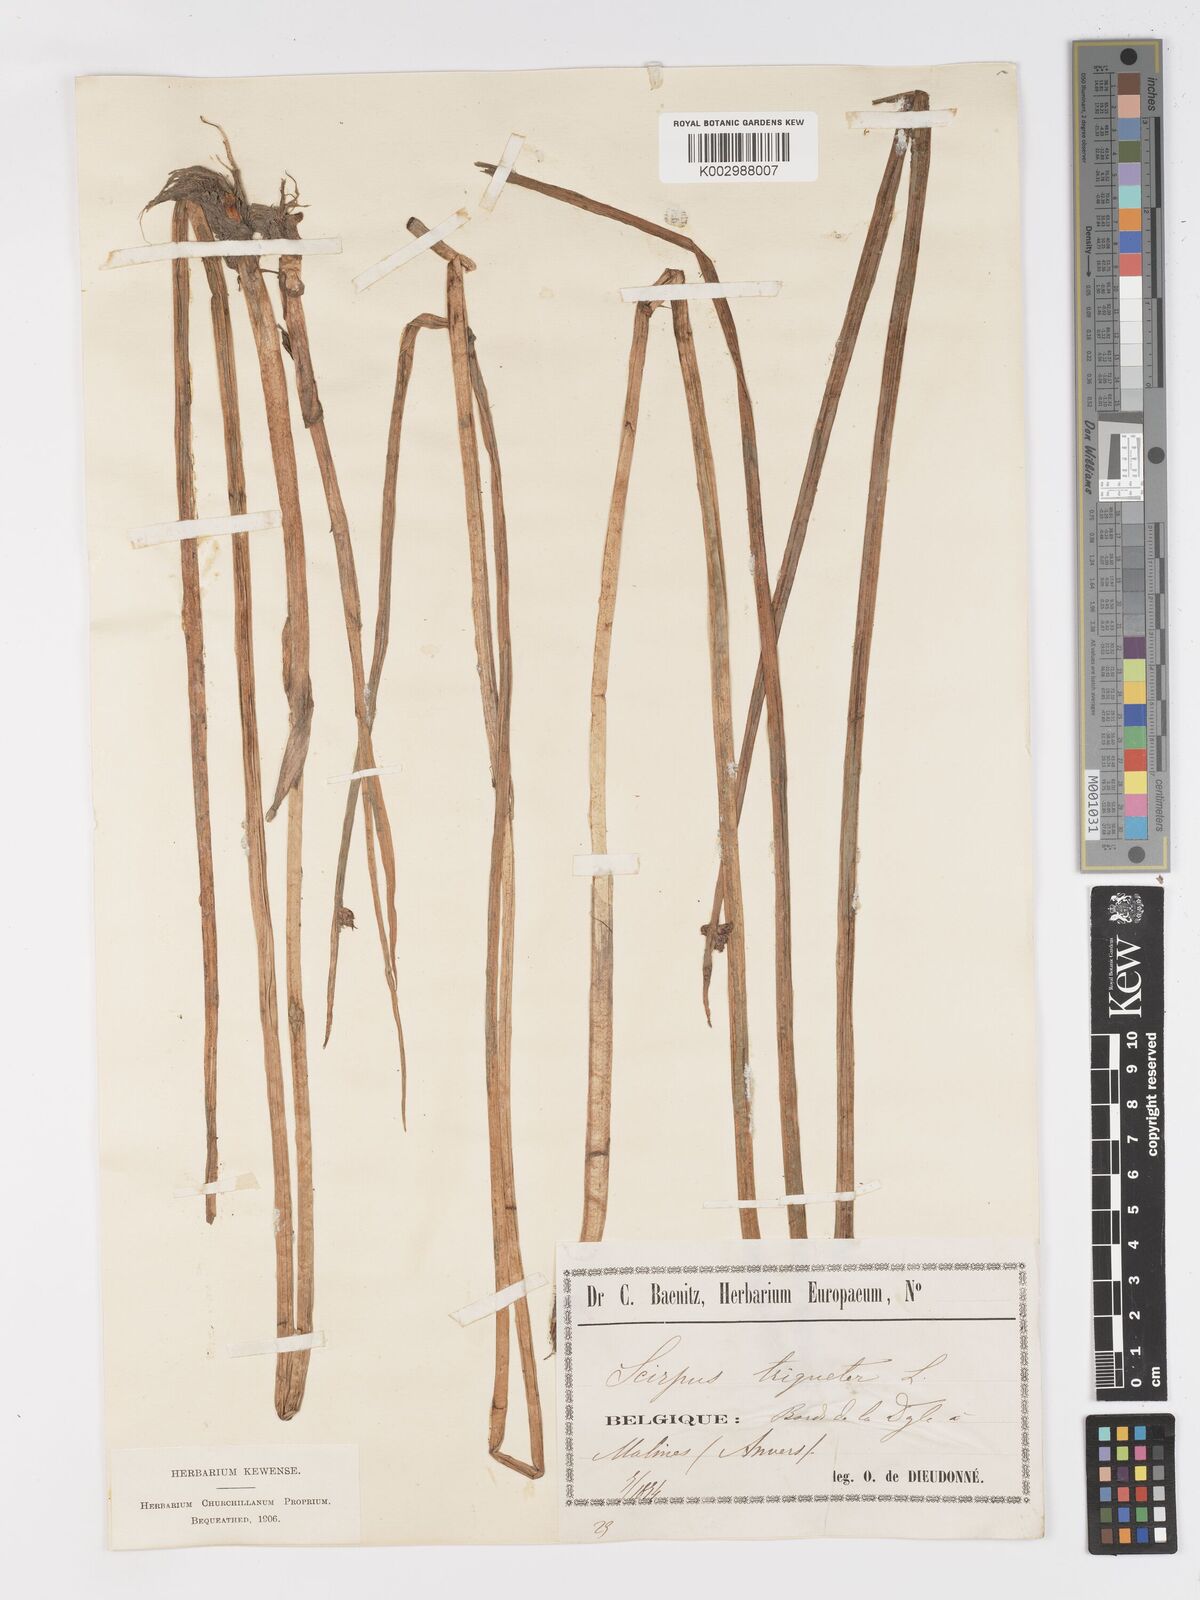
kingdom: Plantae
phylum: Tracheophyta
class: Liliopsida
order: Poales
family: Cyperaceae
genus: Schoenoplectus
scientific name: Schoenoplectus triqueter
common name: Triangular club-rush
